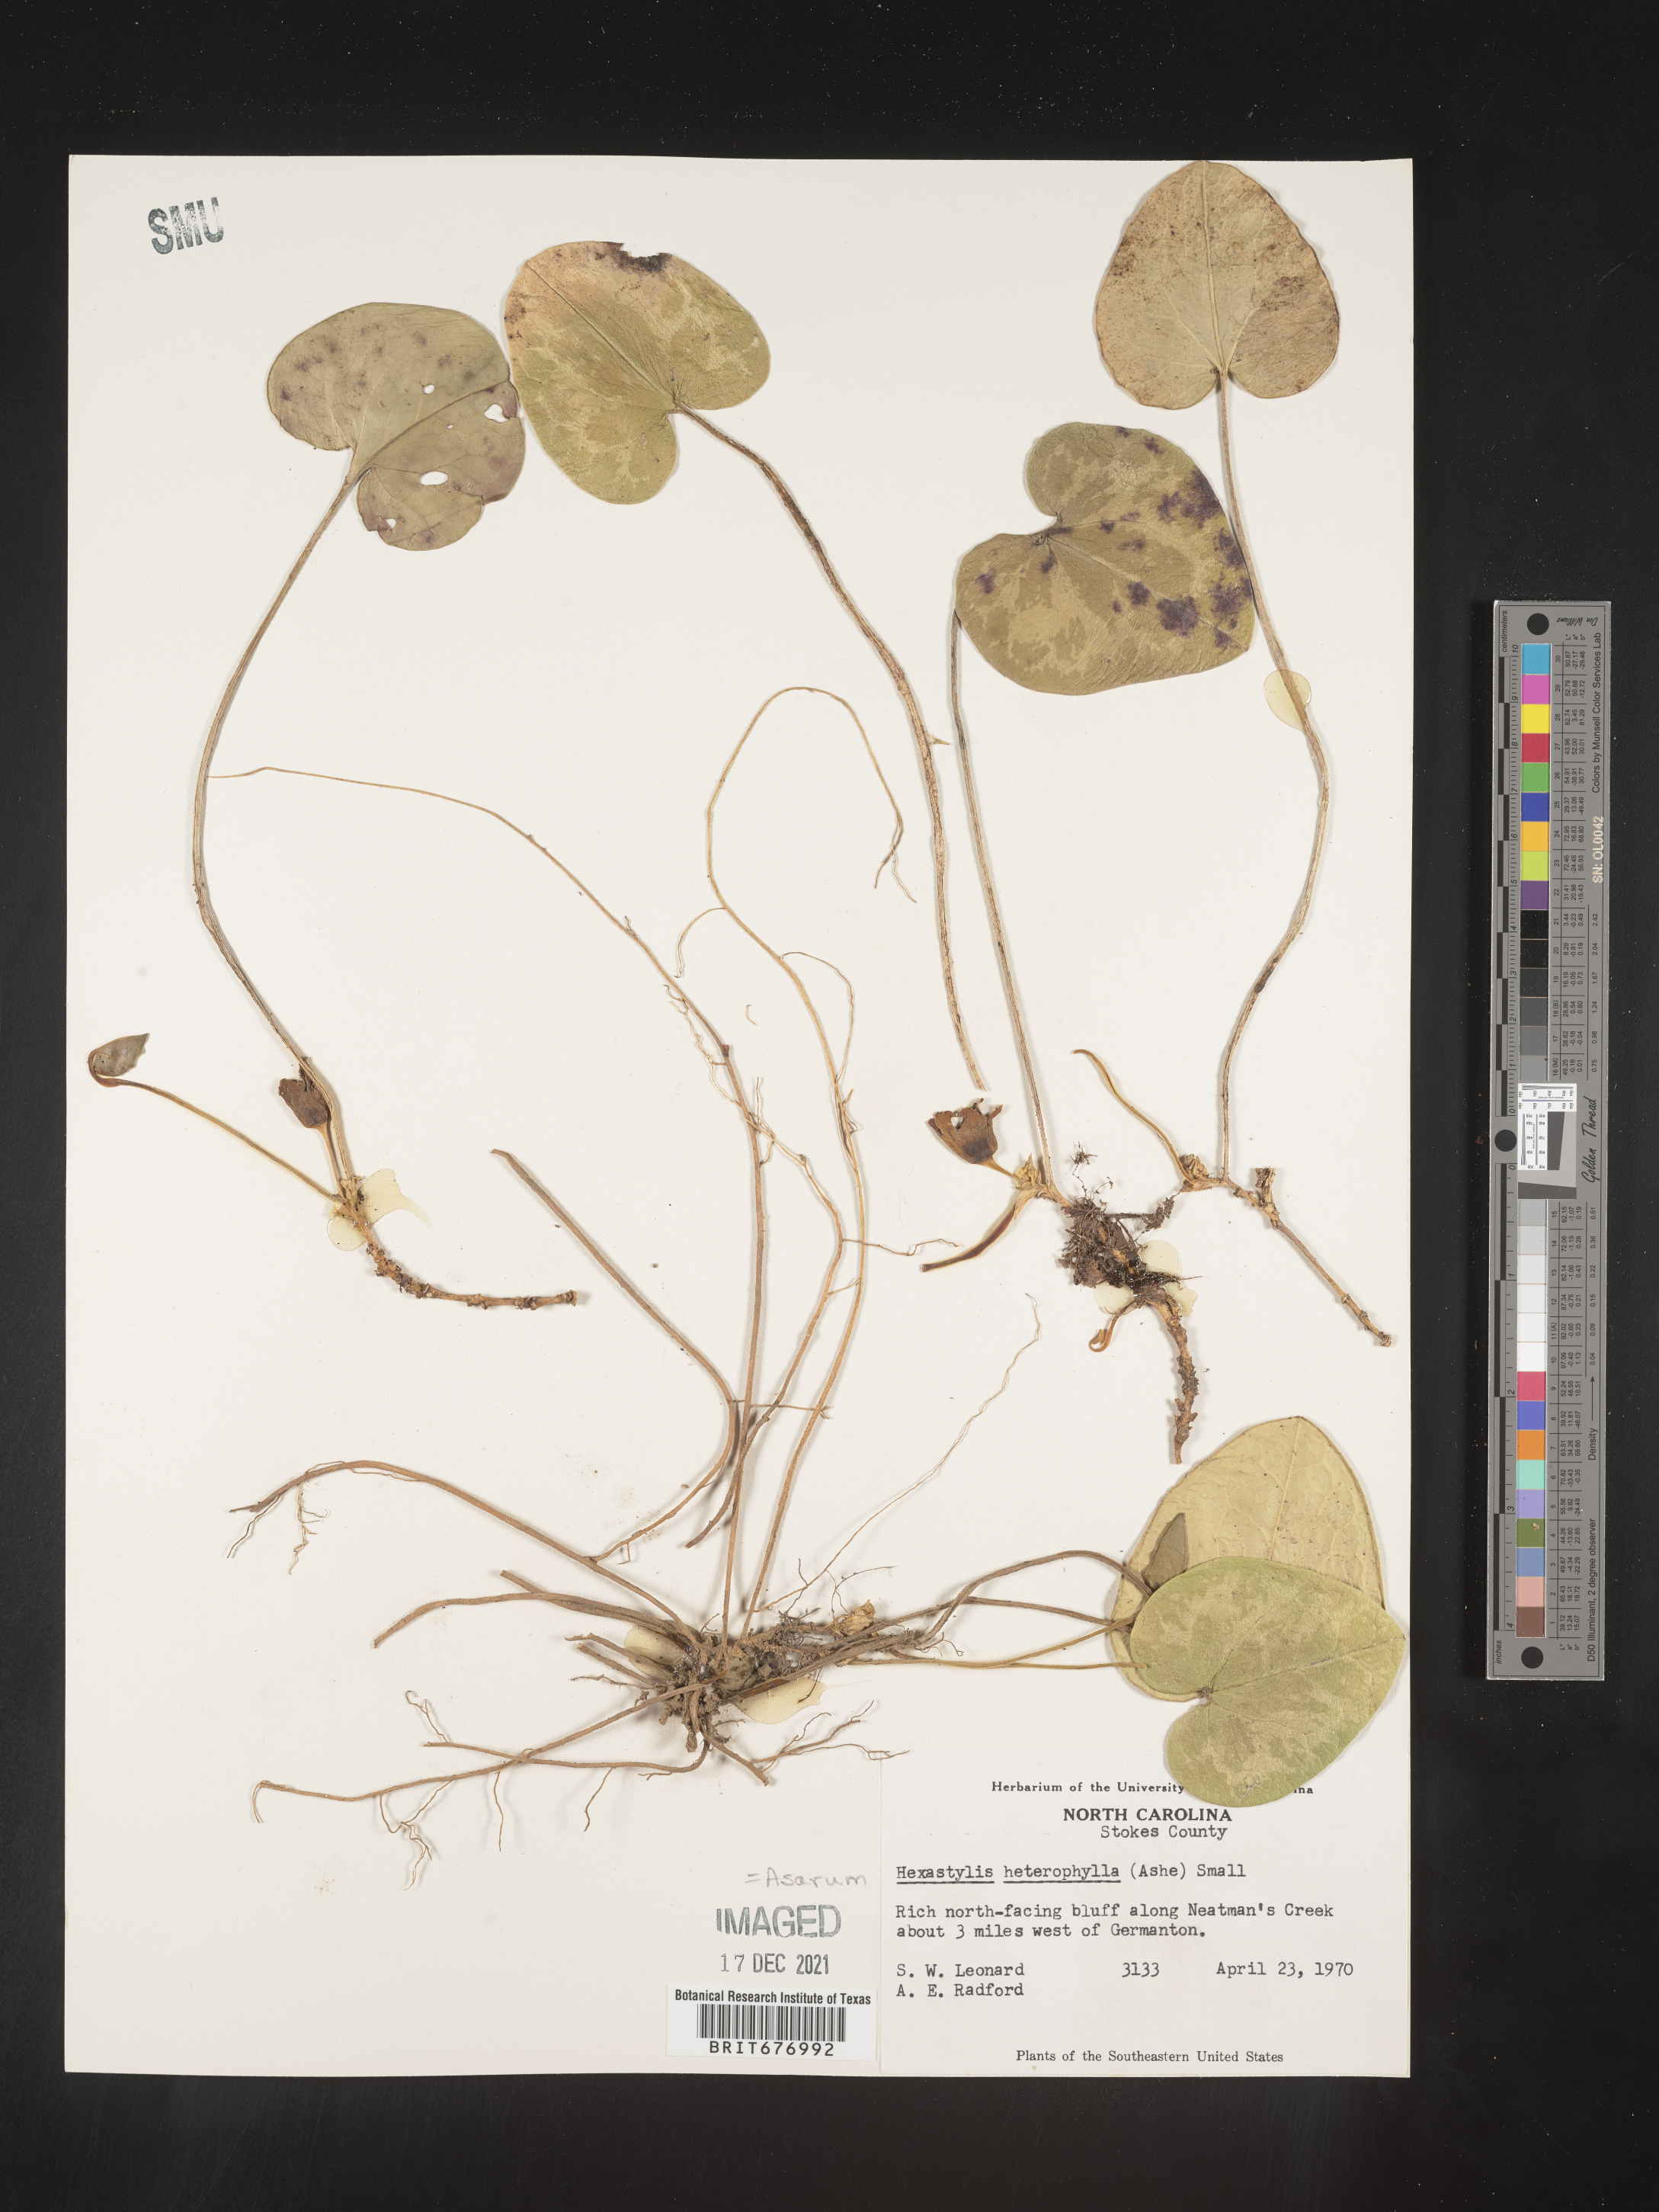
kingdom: Plantae
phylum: Tracheophyta
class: Magnoliopsida
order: Piperales
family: Aristolochiaceae
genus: Asarum
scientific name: Asarum
